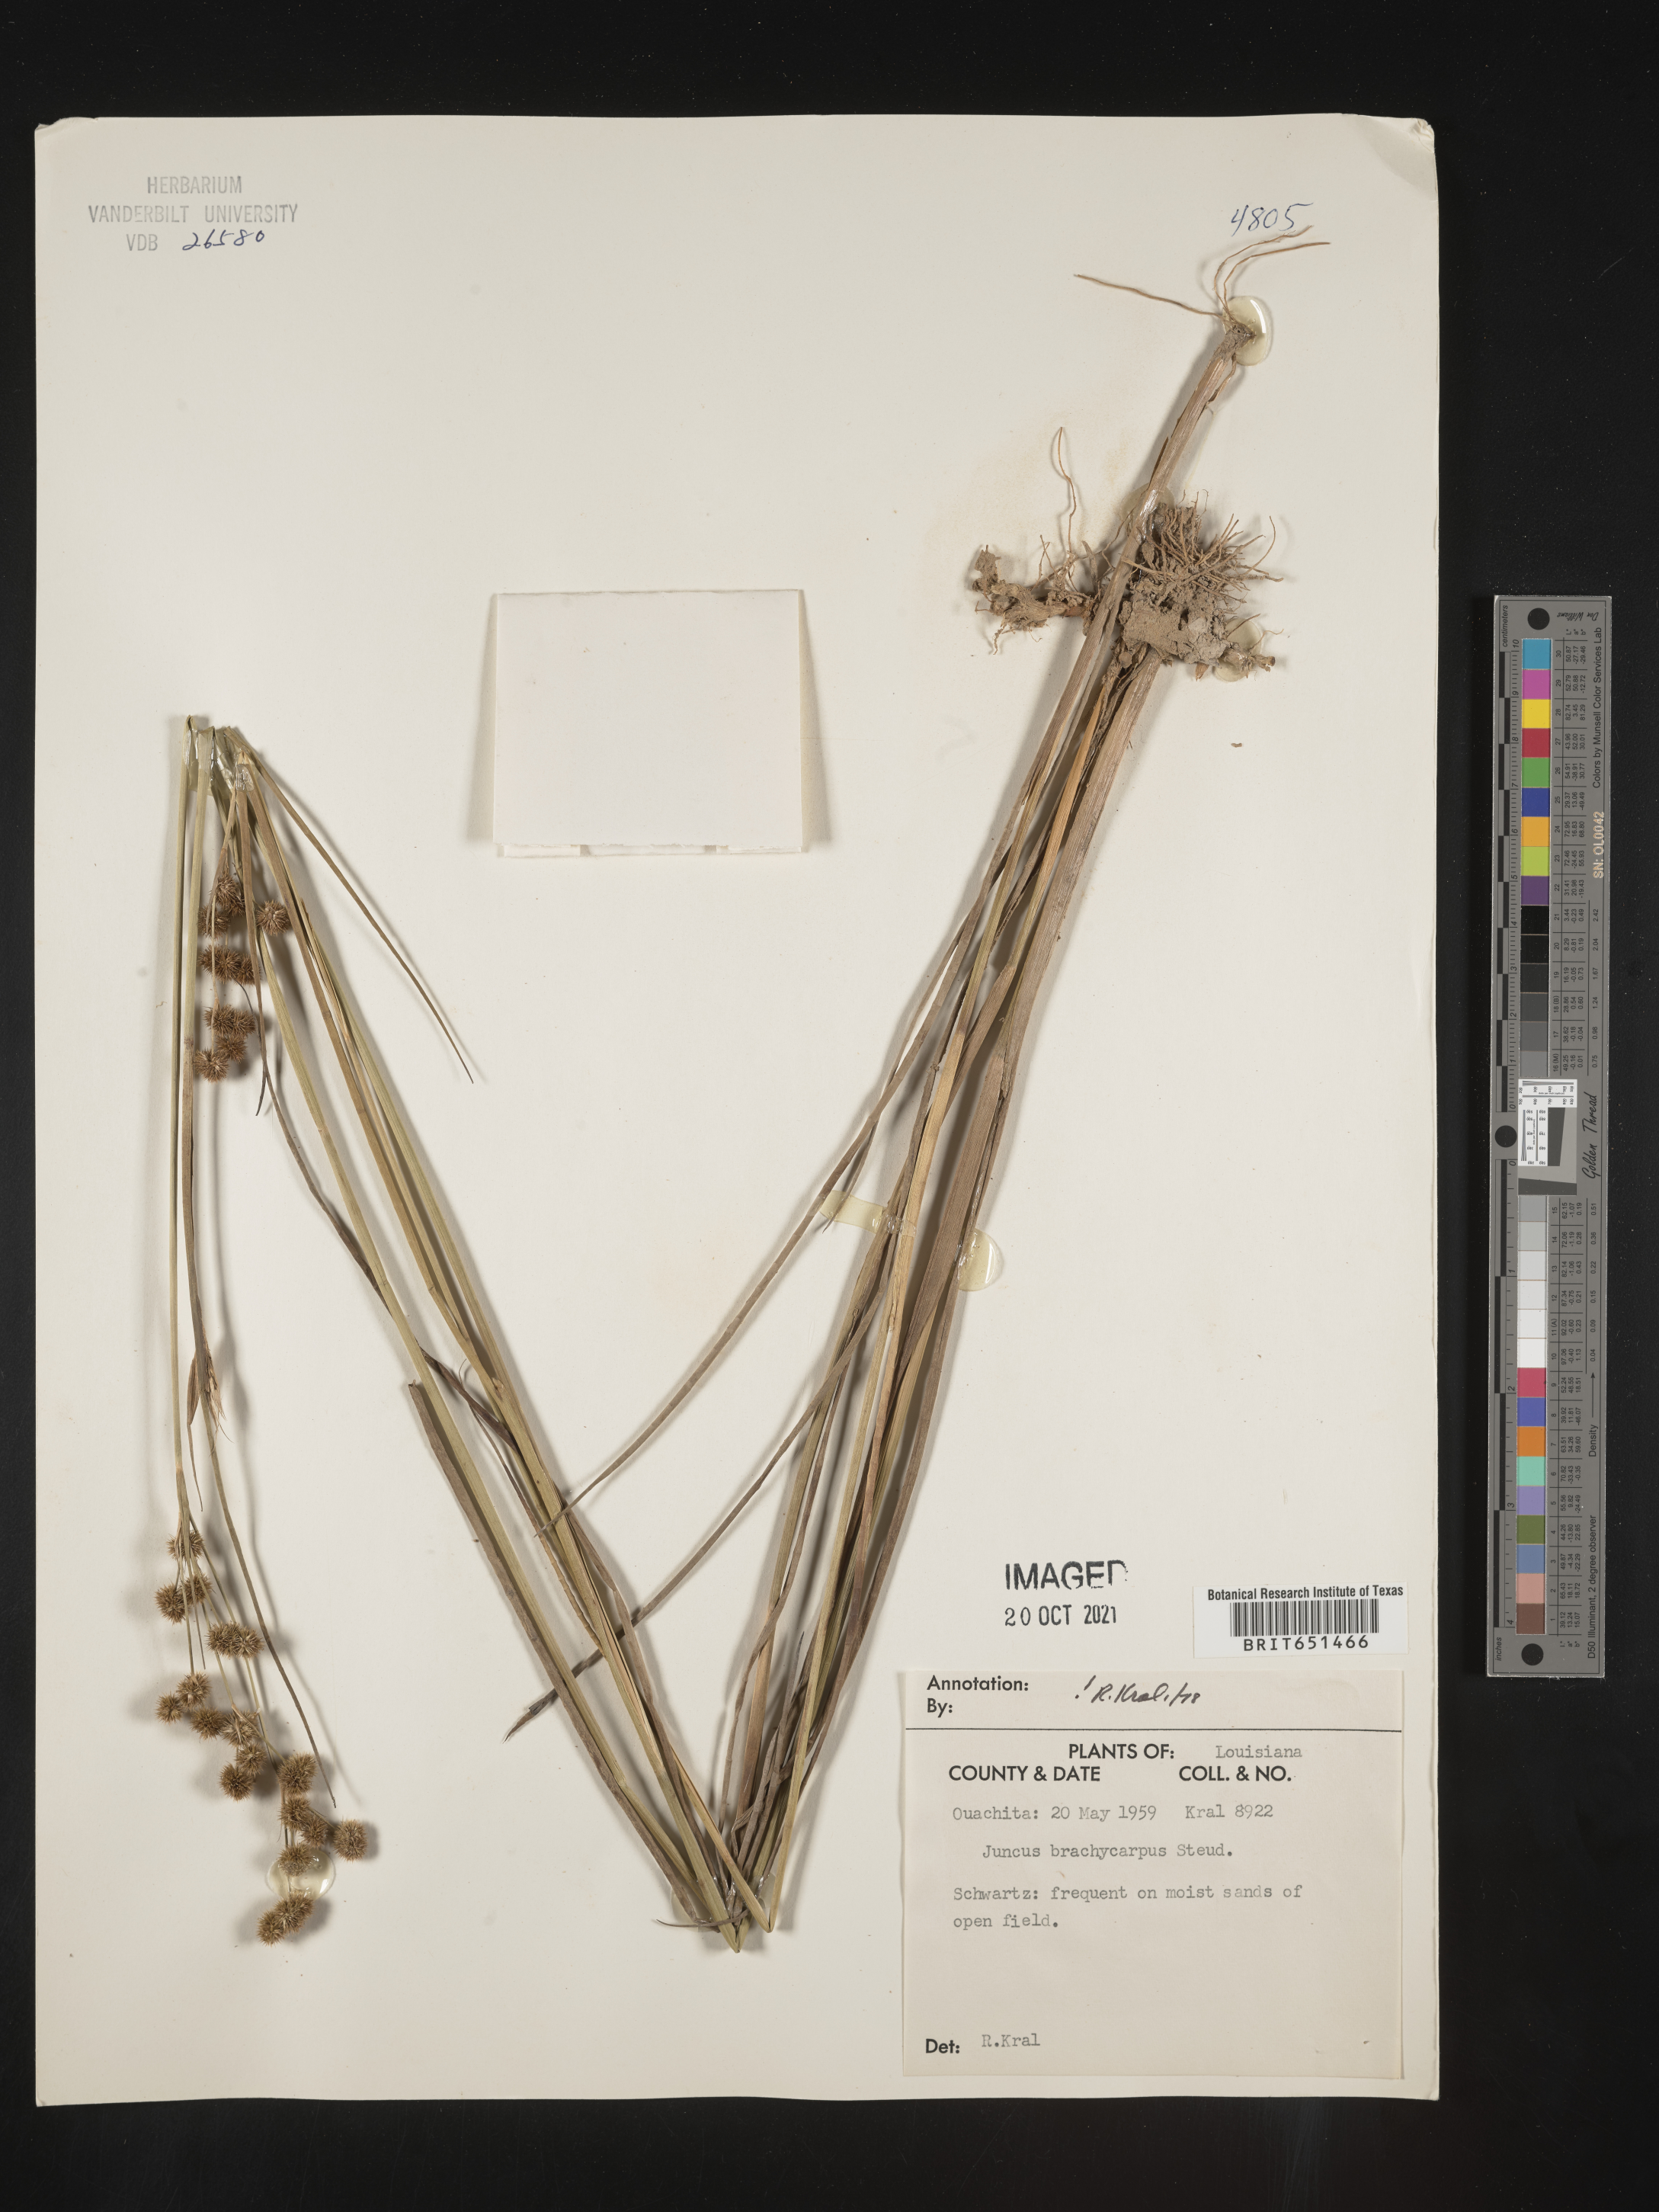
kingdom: Plantae
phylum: Tracheophyta
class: Liliopsida
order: Poales
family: Juncaceae
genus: Juncus
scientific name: Juncus brachycarpus
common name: Shore rush
